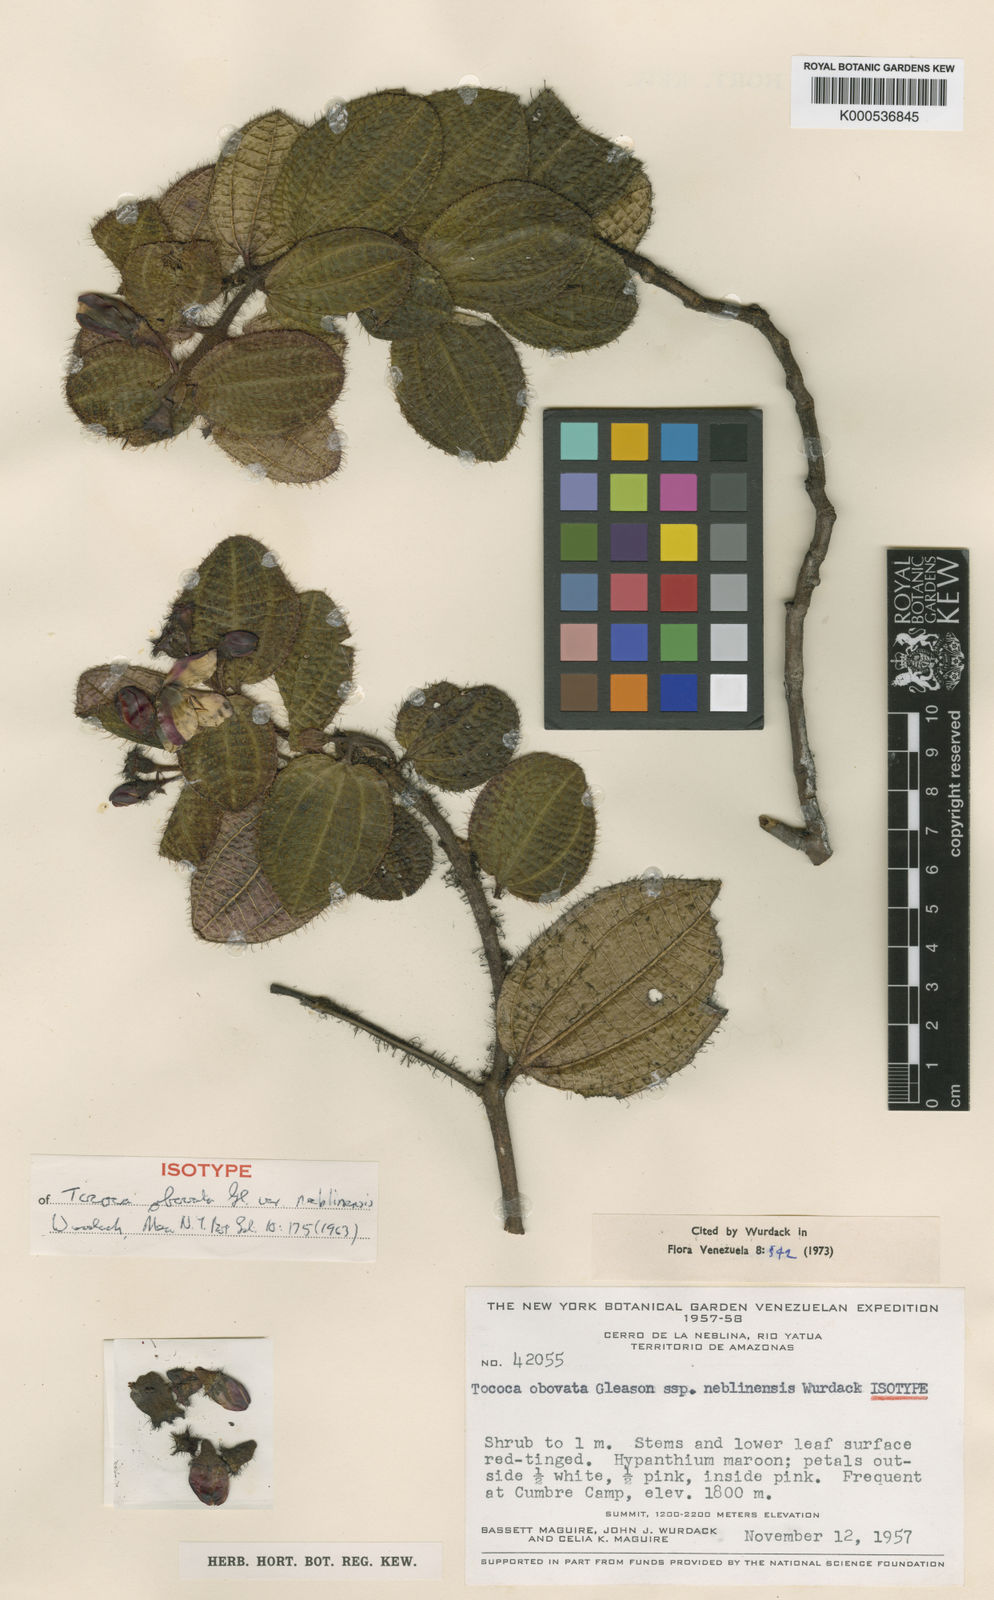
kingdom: Plantae
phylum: Tracheophyta
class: Magnoliopsida
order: Myrtales
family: Melastomataceae
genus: Miconia
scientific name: Miconia tocobovata
